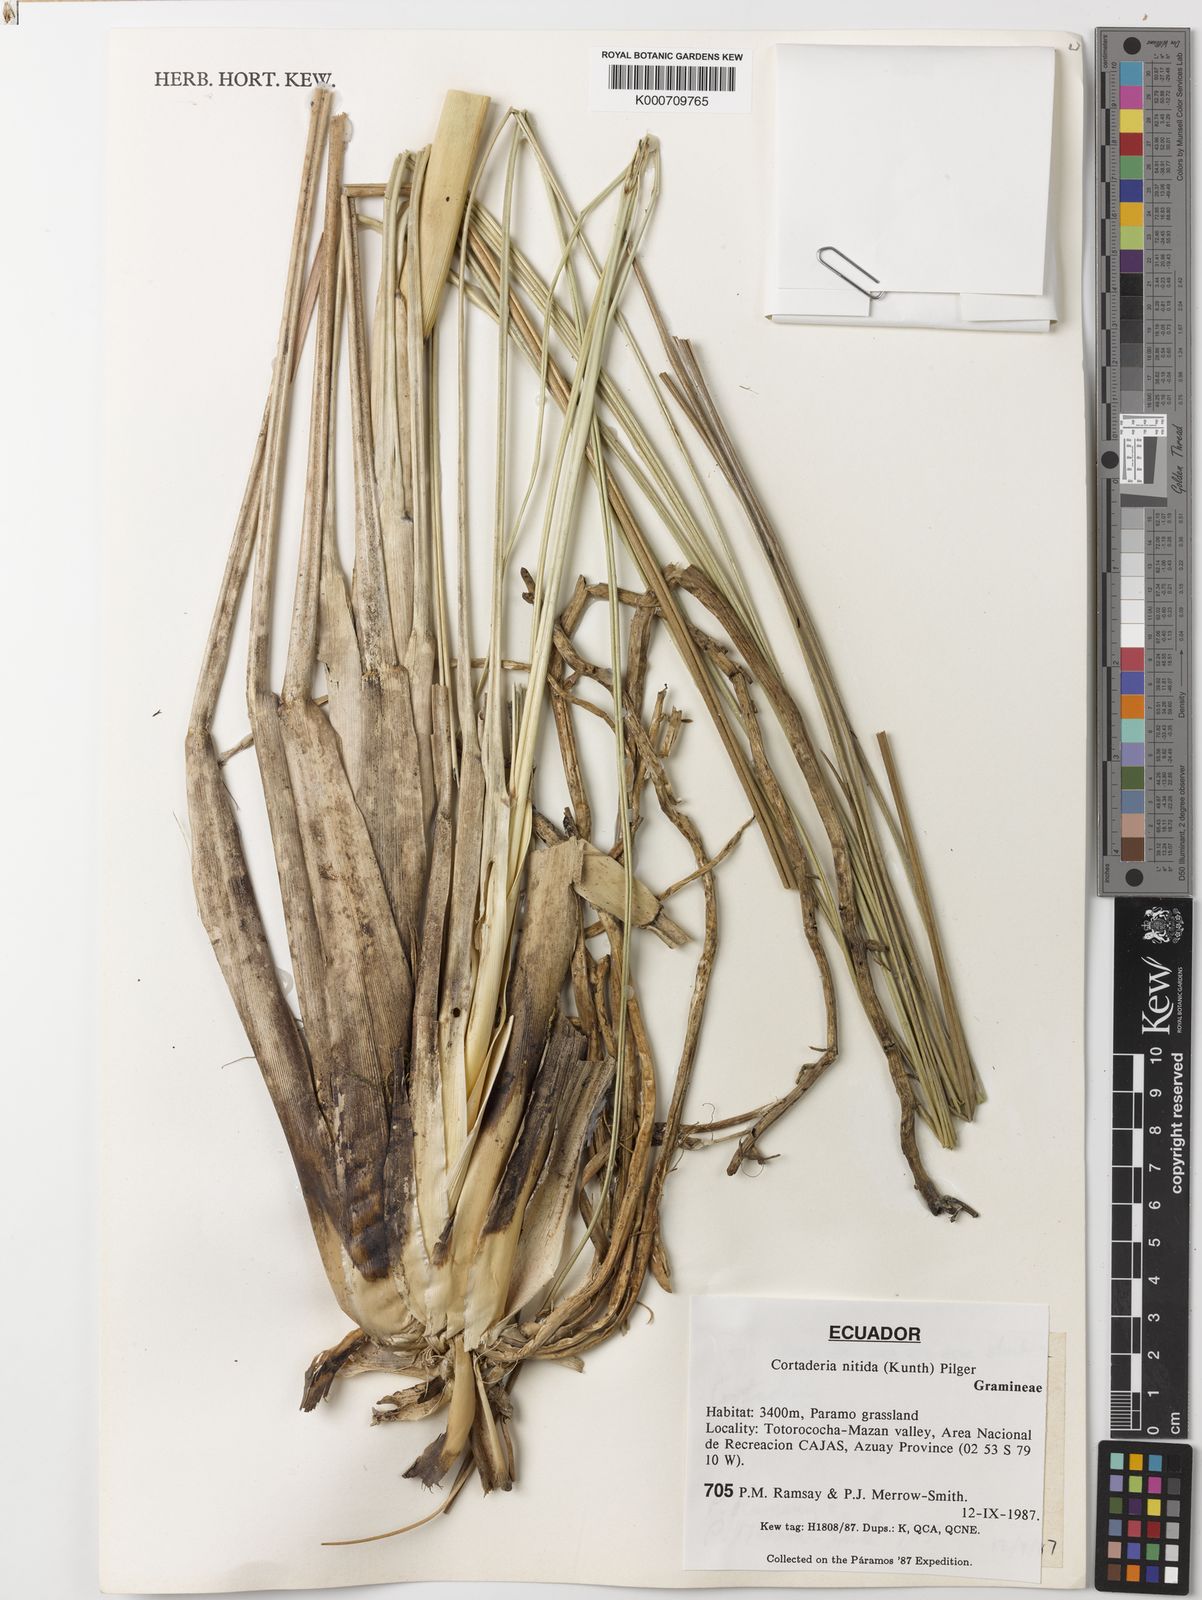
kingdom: Plantae
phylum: Tracheophyta
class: Liliopsida
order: Poales
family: Poaceae
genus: Cortaderia
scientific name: Cortaderia nitida
